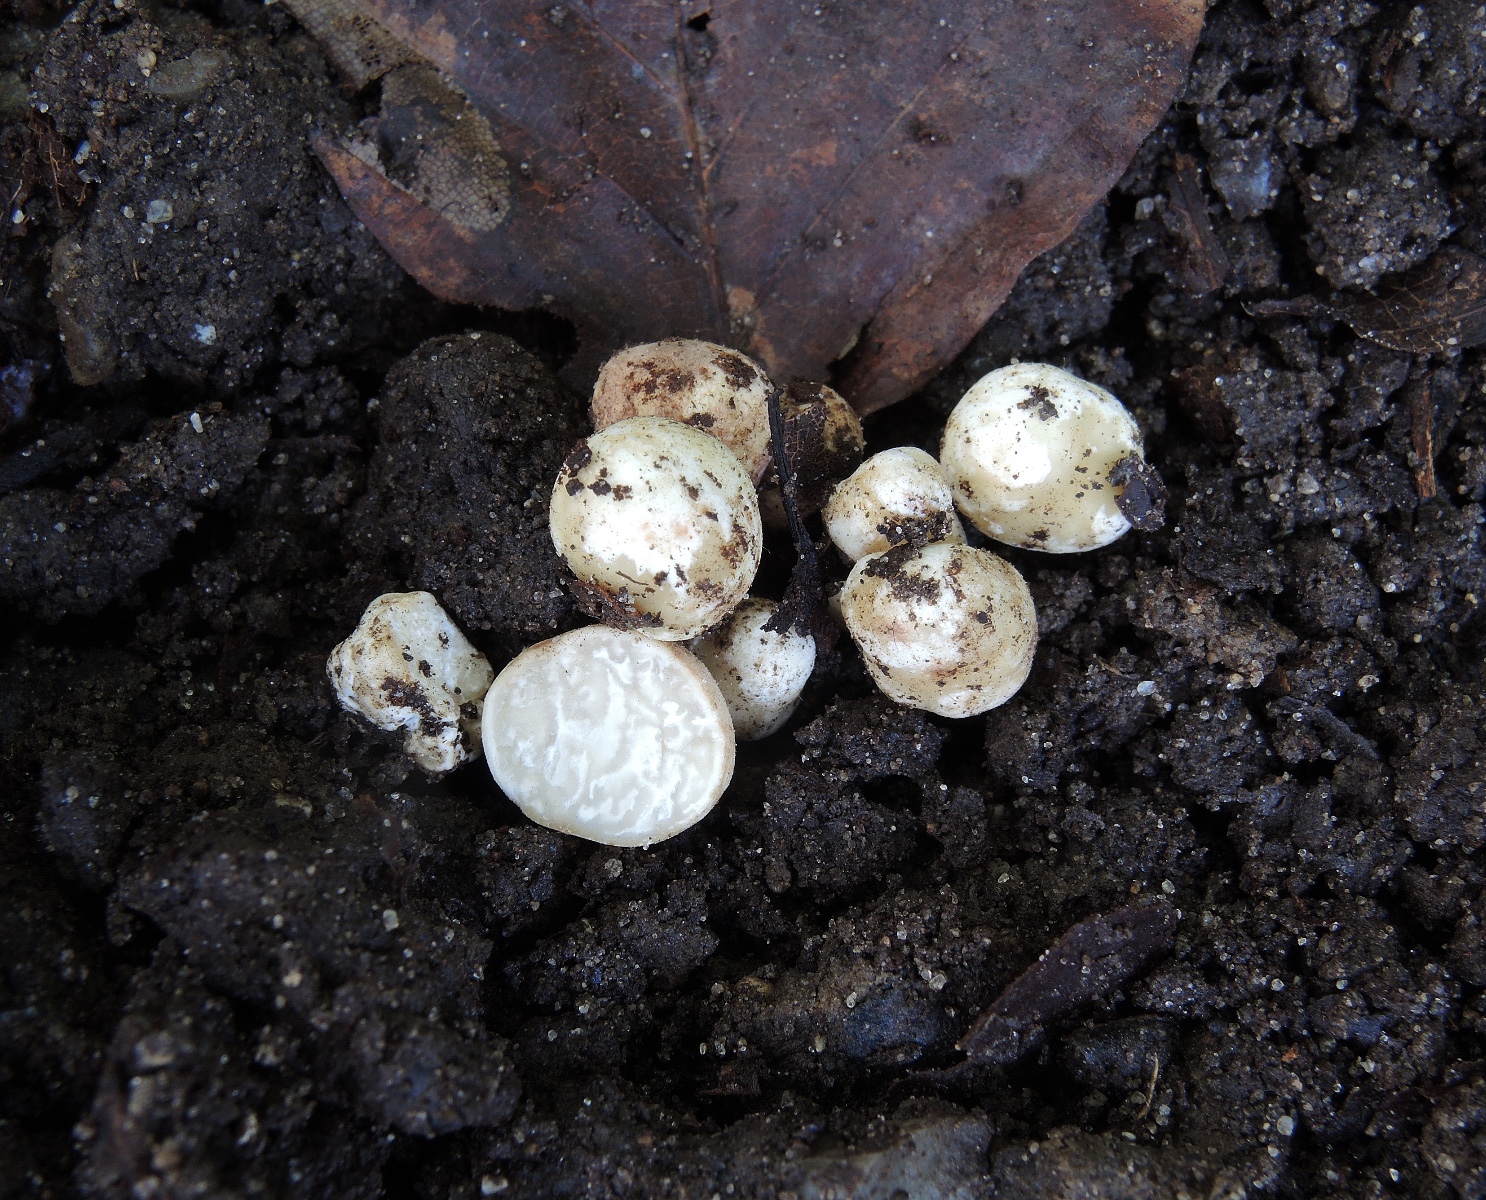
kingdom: Fungi
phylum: Ascomycota
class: Pezizomycetes
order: Pezizales
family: Tuberaceae
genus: Tuber
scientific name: Tuber maculatum
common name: plettet trøffel
